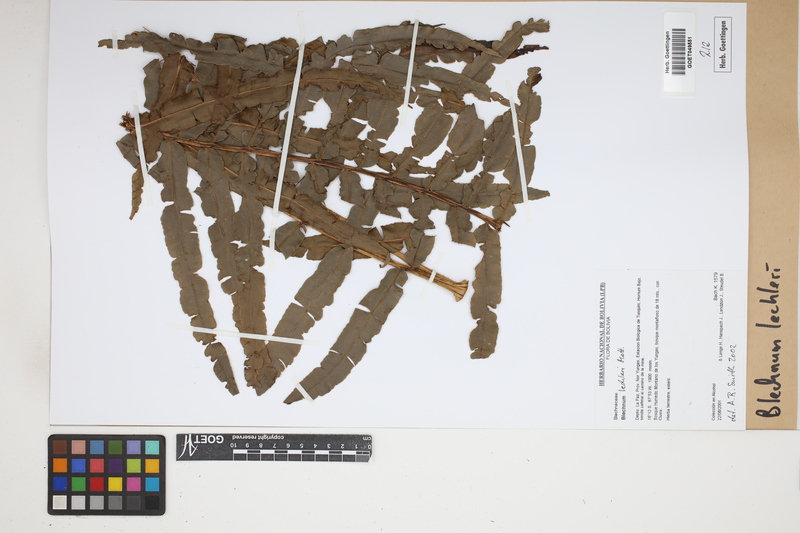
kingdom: Plantae
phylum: Tracheophyta
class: Polypodiopsida
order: Polypodiales
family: Blechnaceae
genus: Parablechnum
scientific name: Parablechnum lechleri
